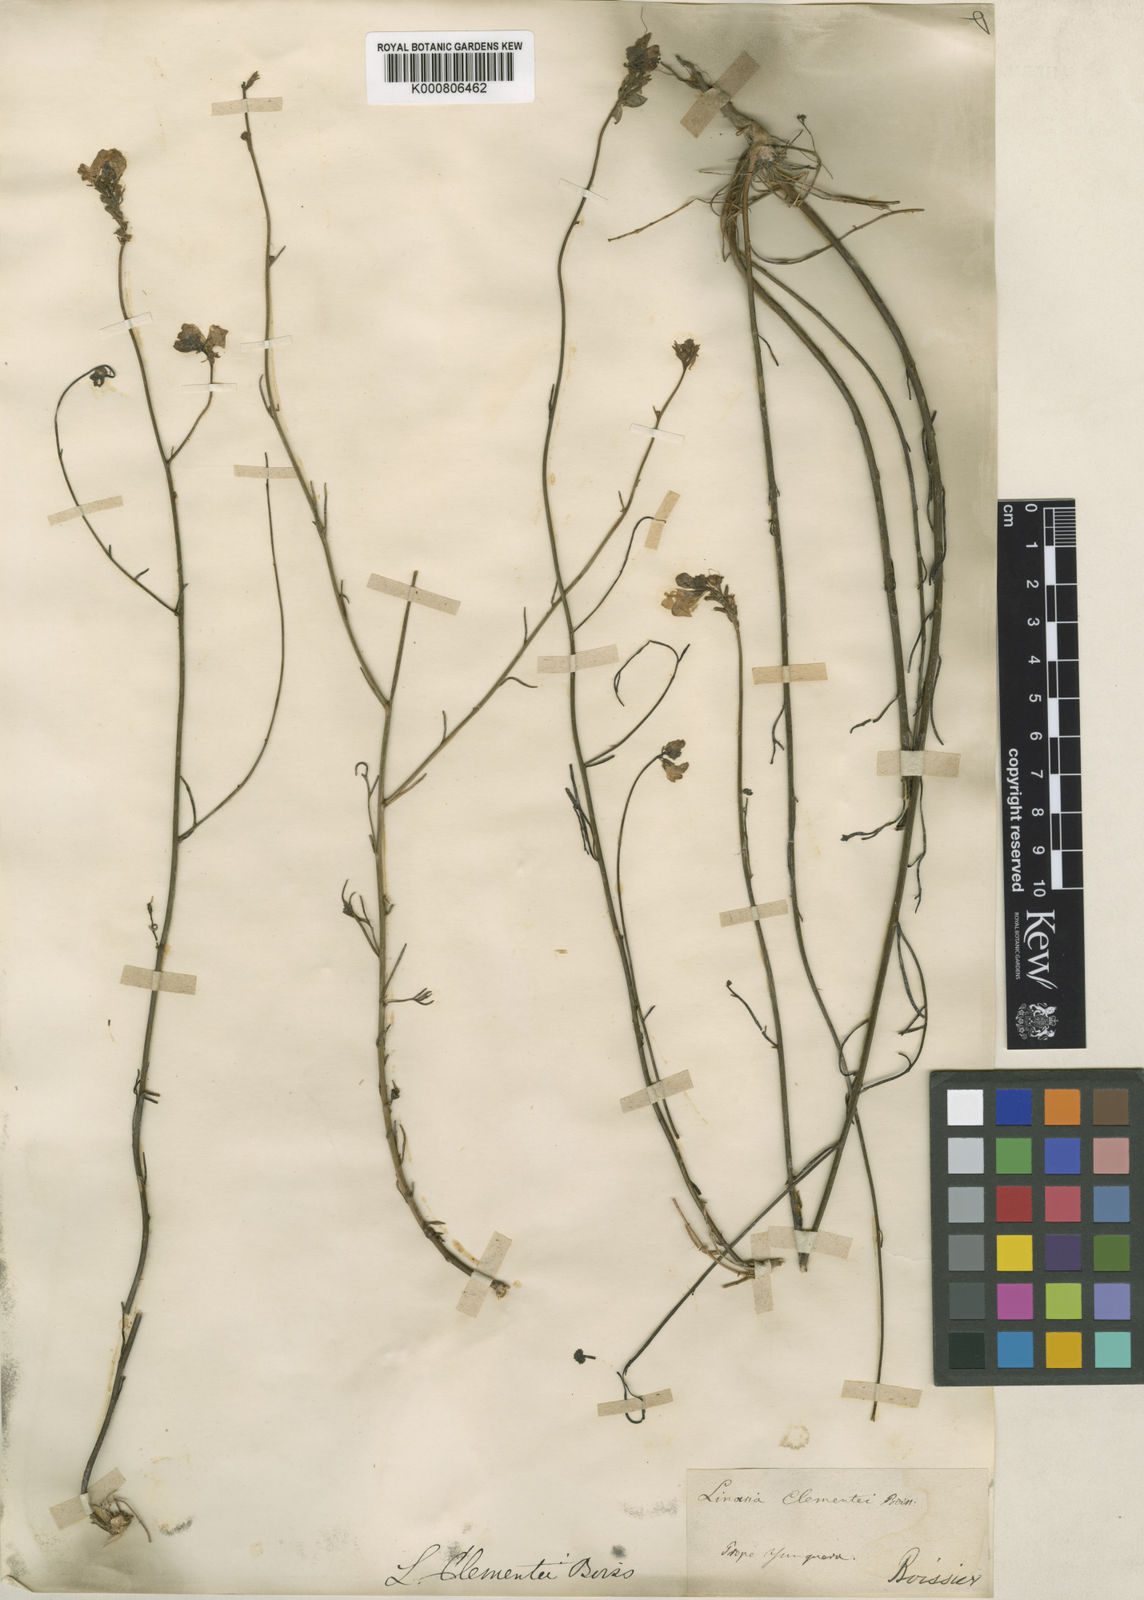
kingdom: Plantae
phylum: Tracheophyta
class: Magnoliopsida
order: Lamiales
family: Plantaginaceae
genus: Linaria
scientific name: Linaria clementei
